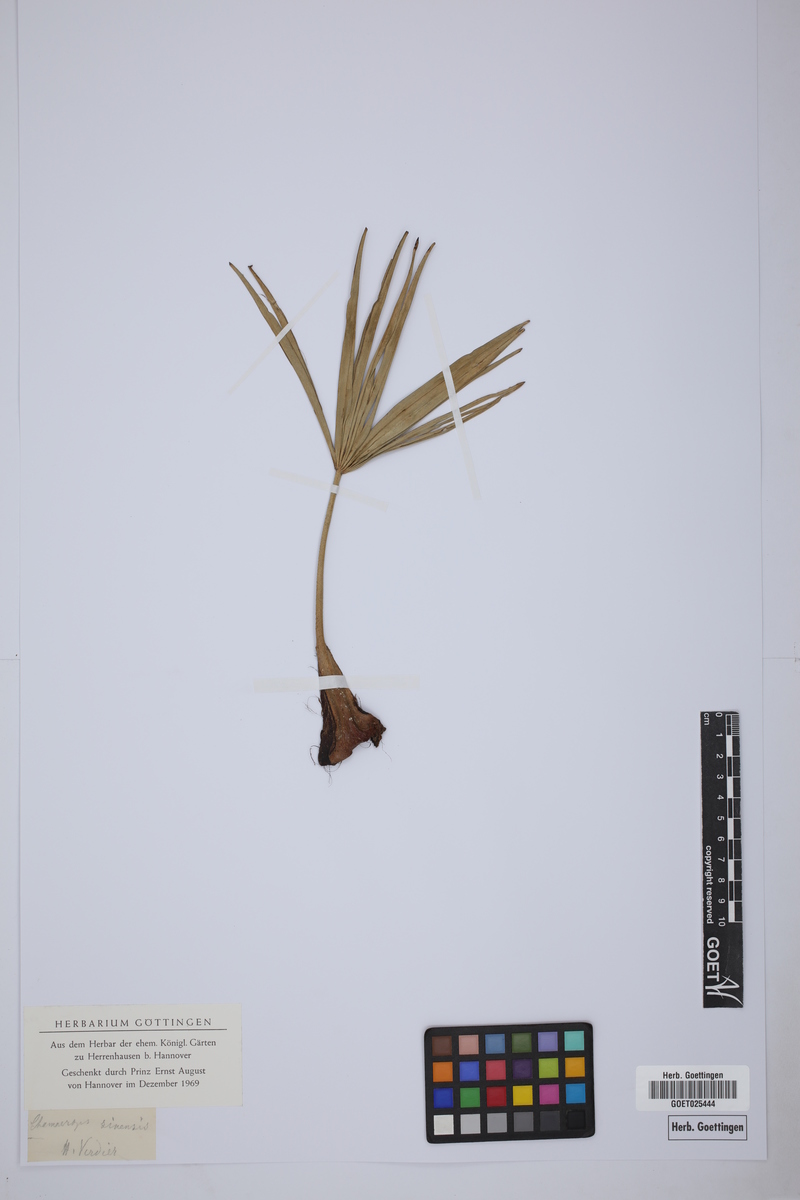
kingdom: Plantae
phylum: Tracheophyta
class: Liliopsida
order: Arecales
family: Arecaceae
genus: Chamaerops
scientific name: Chamaerops sinensis
